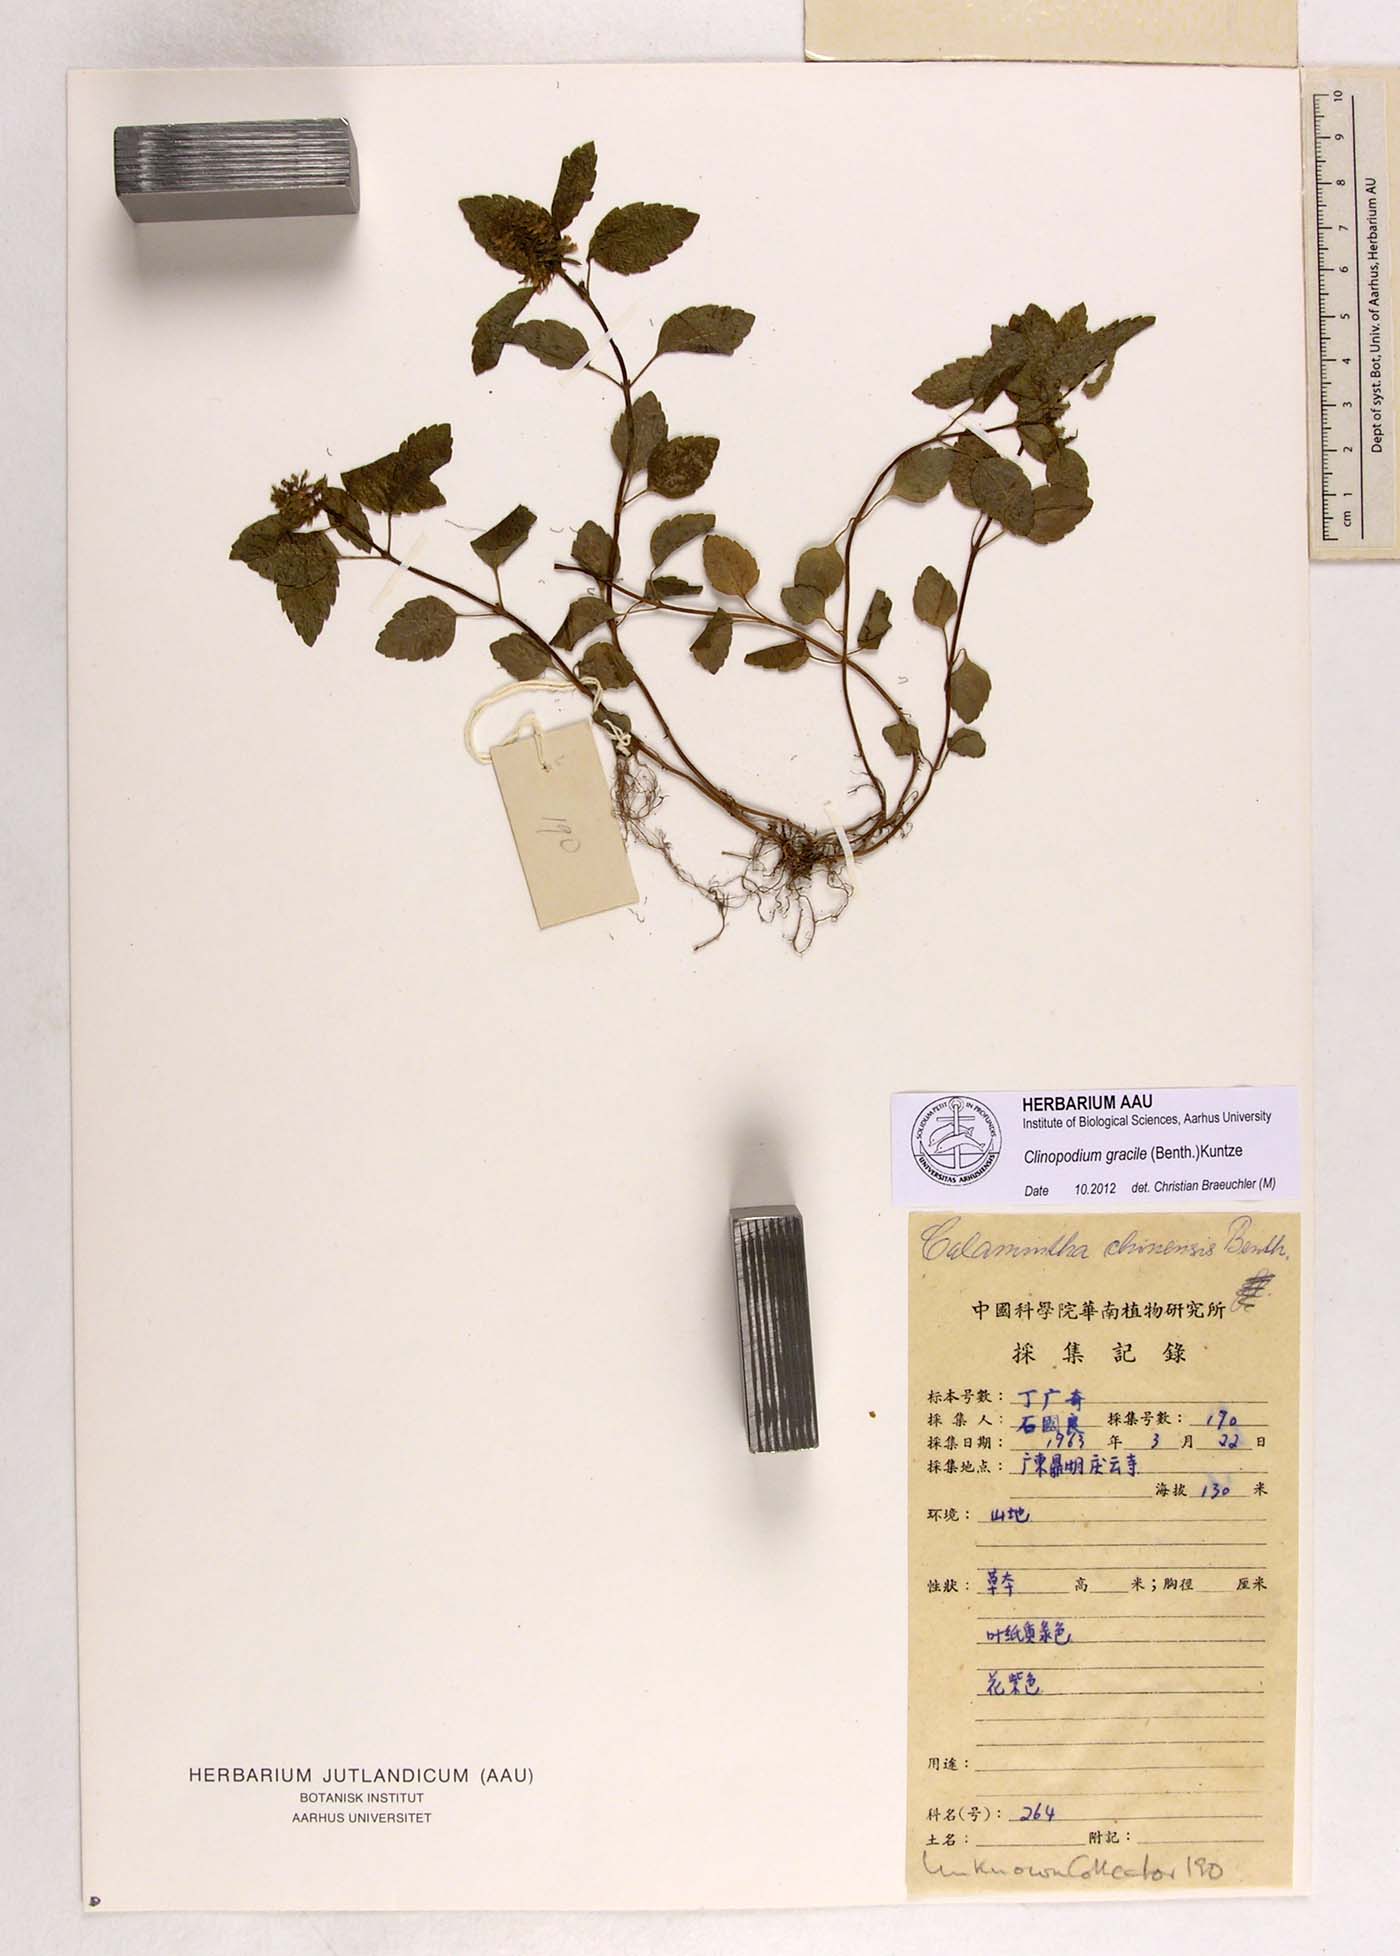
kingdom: Plantae
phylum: Tracheophyta
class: Magnoliopsida
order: Lamiales
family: Lamiaceae
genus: Clinopodium
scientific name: Clinopodium gracile
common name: Slender wild basil
